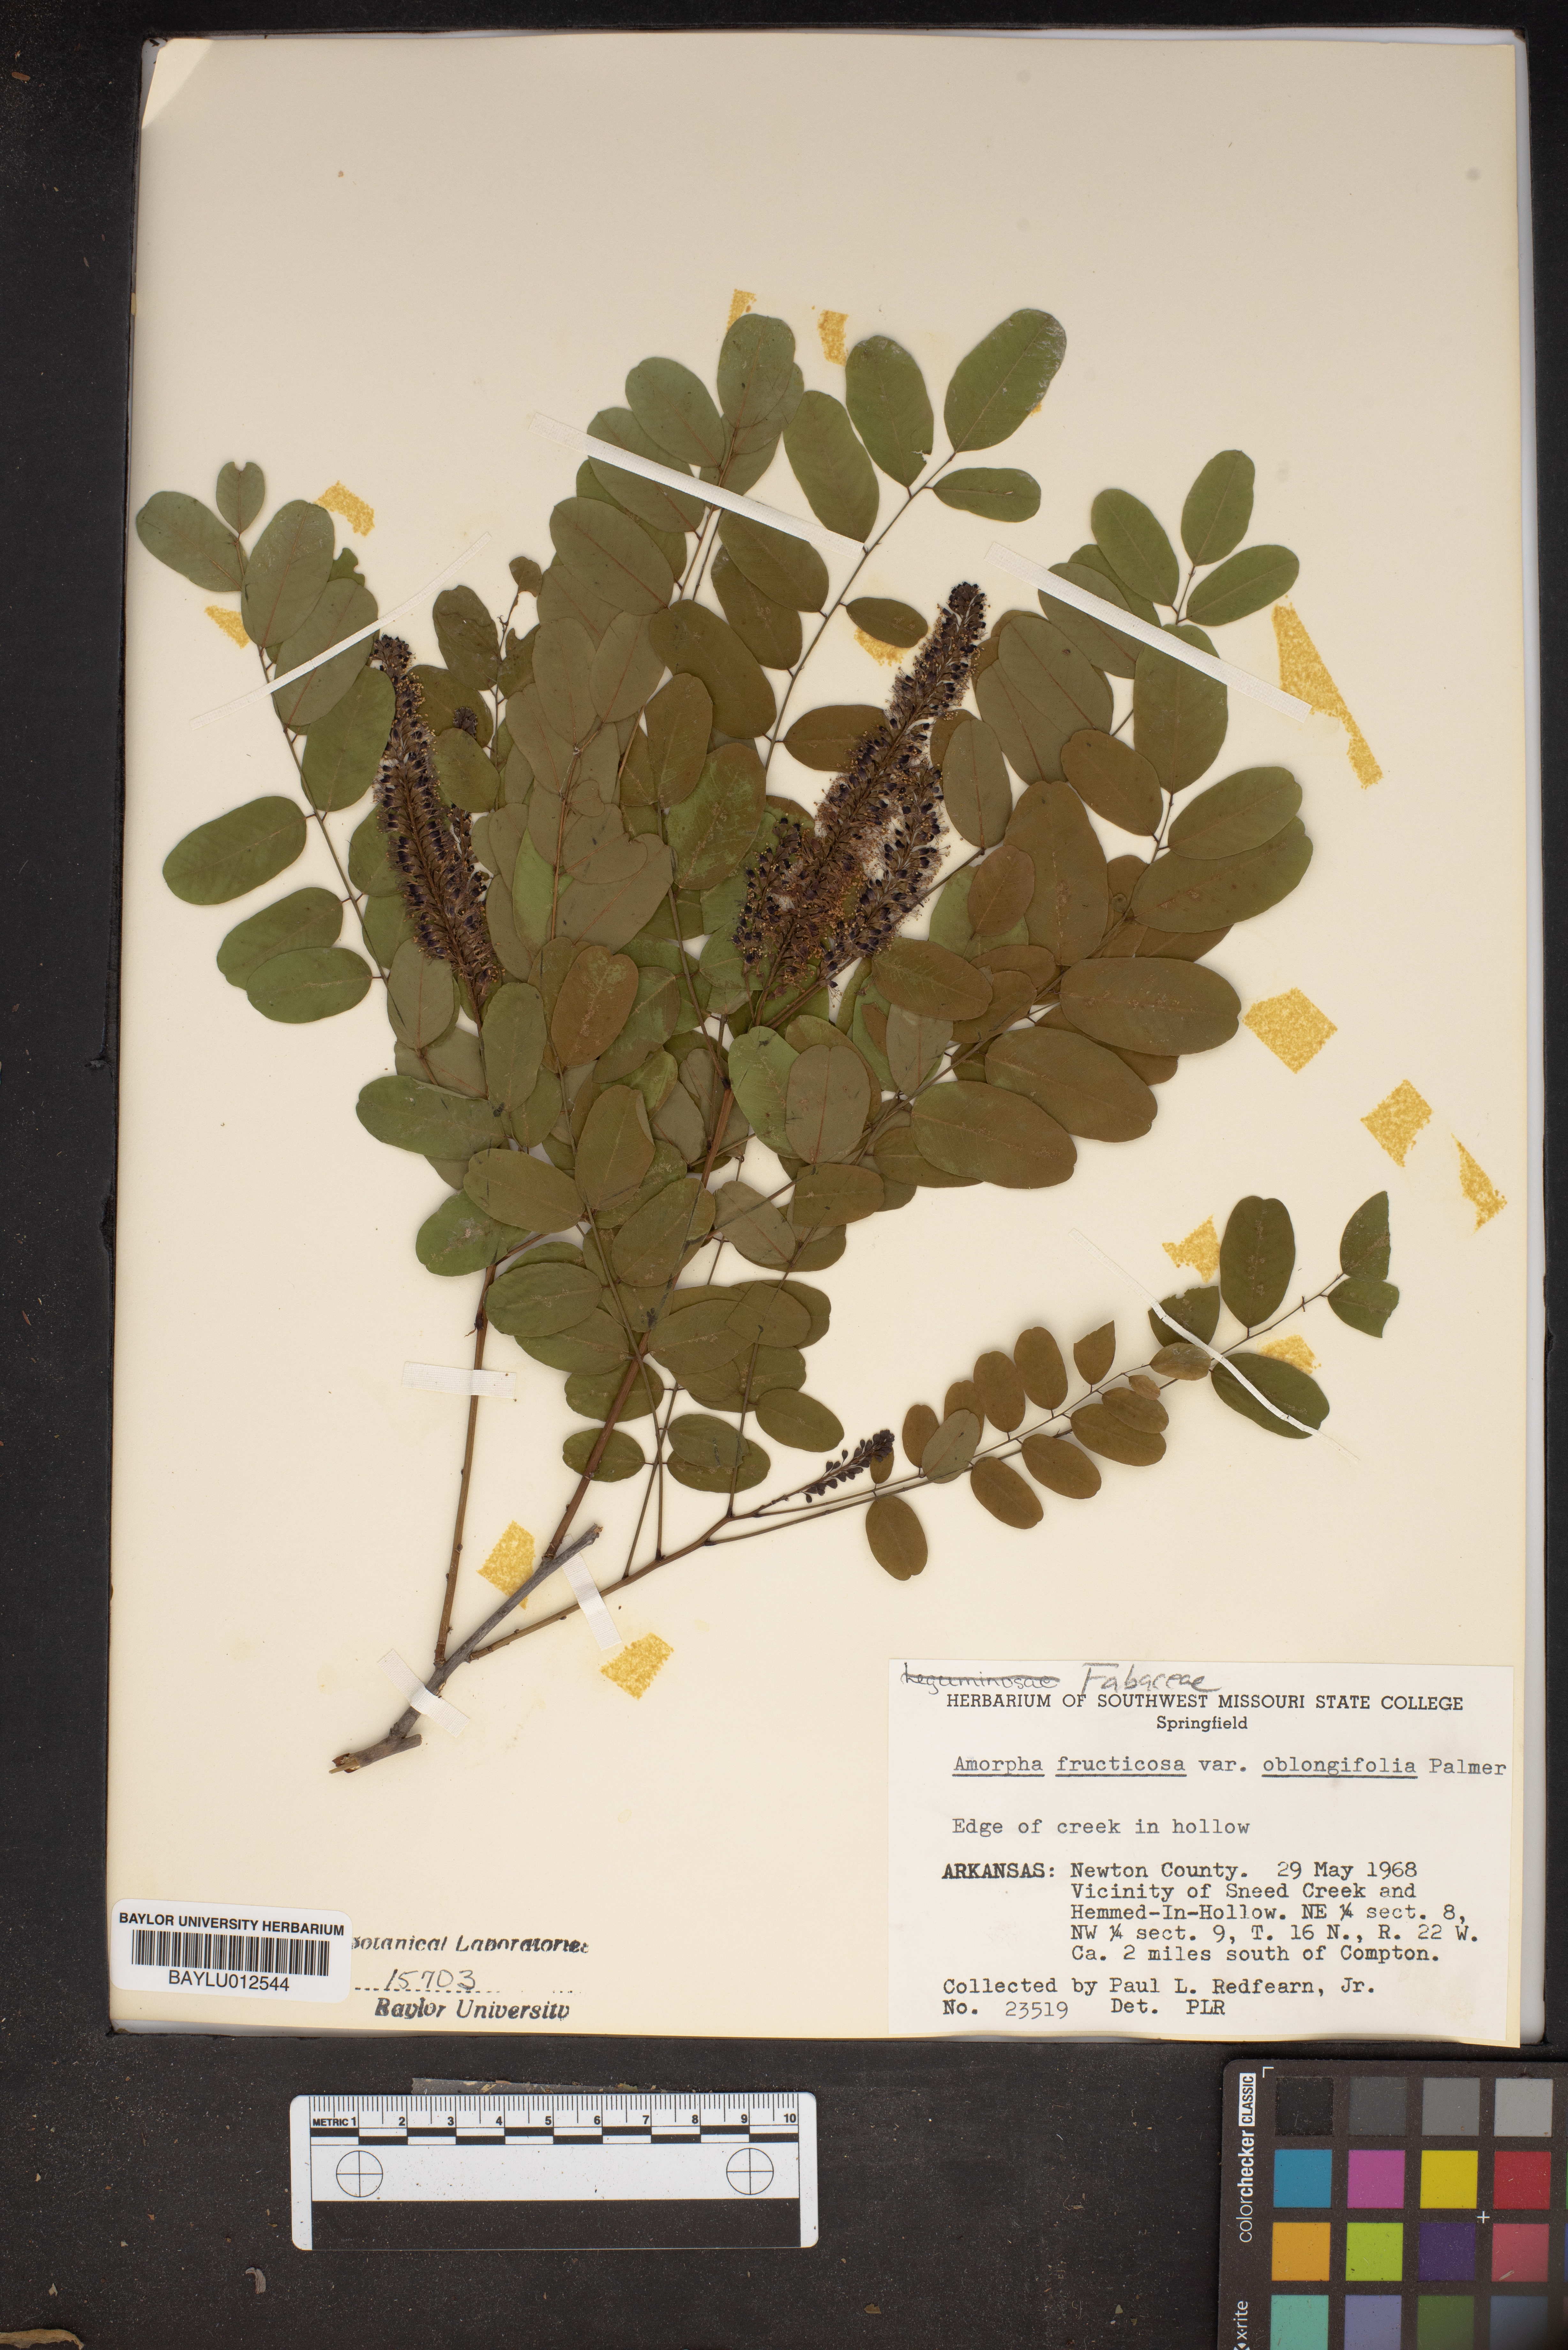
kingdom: Plantae
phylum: Tracheophyta
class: Magnoliopsida
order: Fabales
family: Fabaceae
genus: Amorpha
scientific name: Amorpha fruticosa
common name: False indigo
